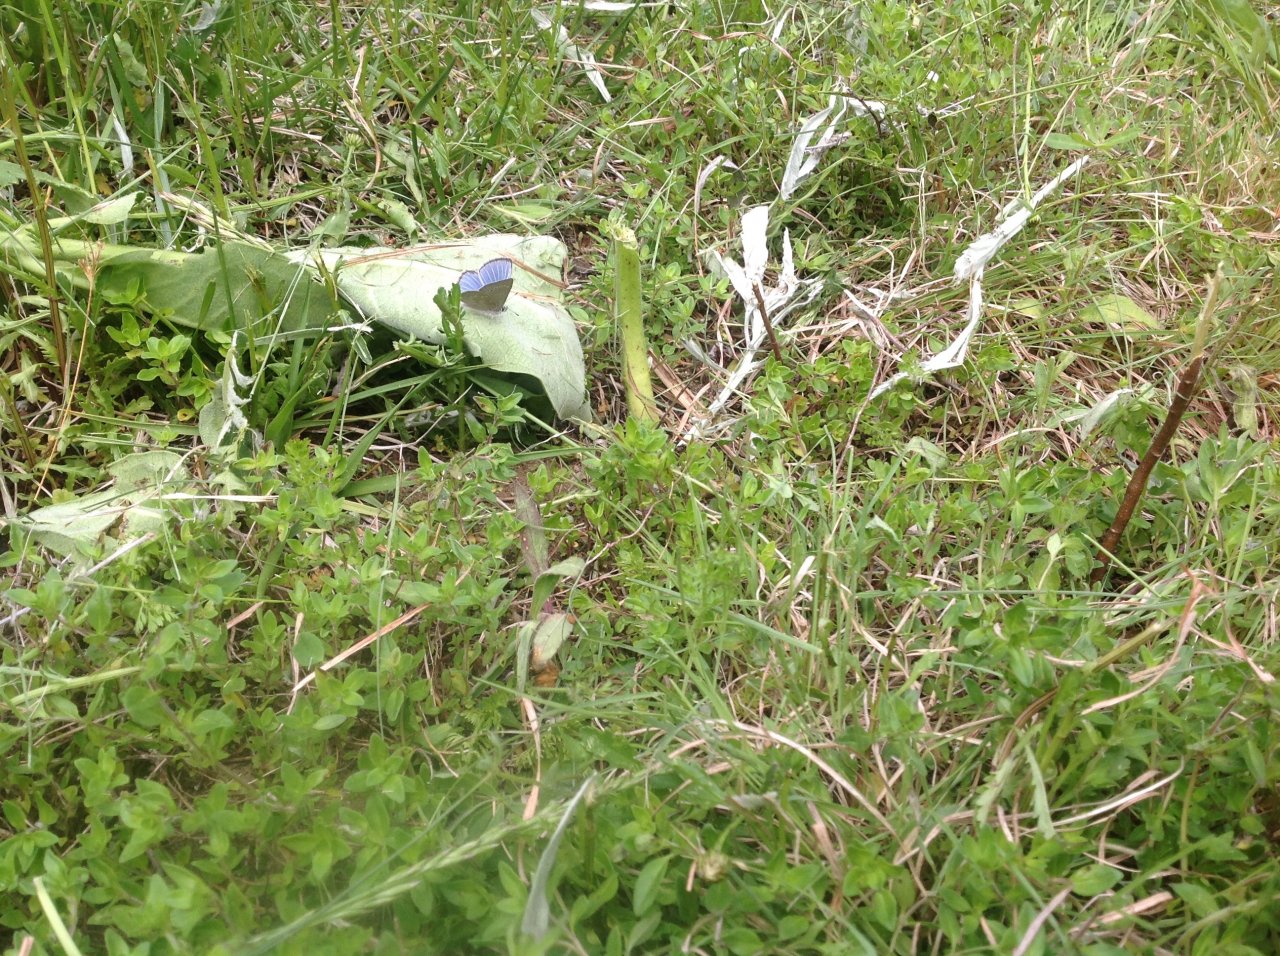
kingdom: Animalia
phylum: Arthropoda
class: Insecta
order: Lepidoptera
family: Lycaenidae
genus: Glaucopsyche
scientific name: Glaucopsyche lygdamus
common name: Silvery Blue
